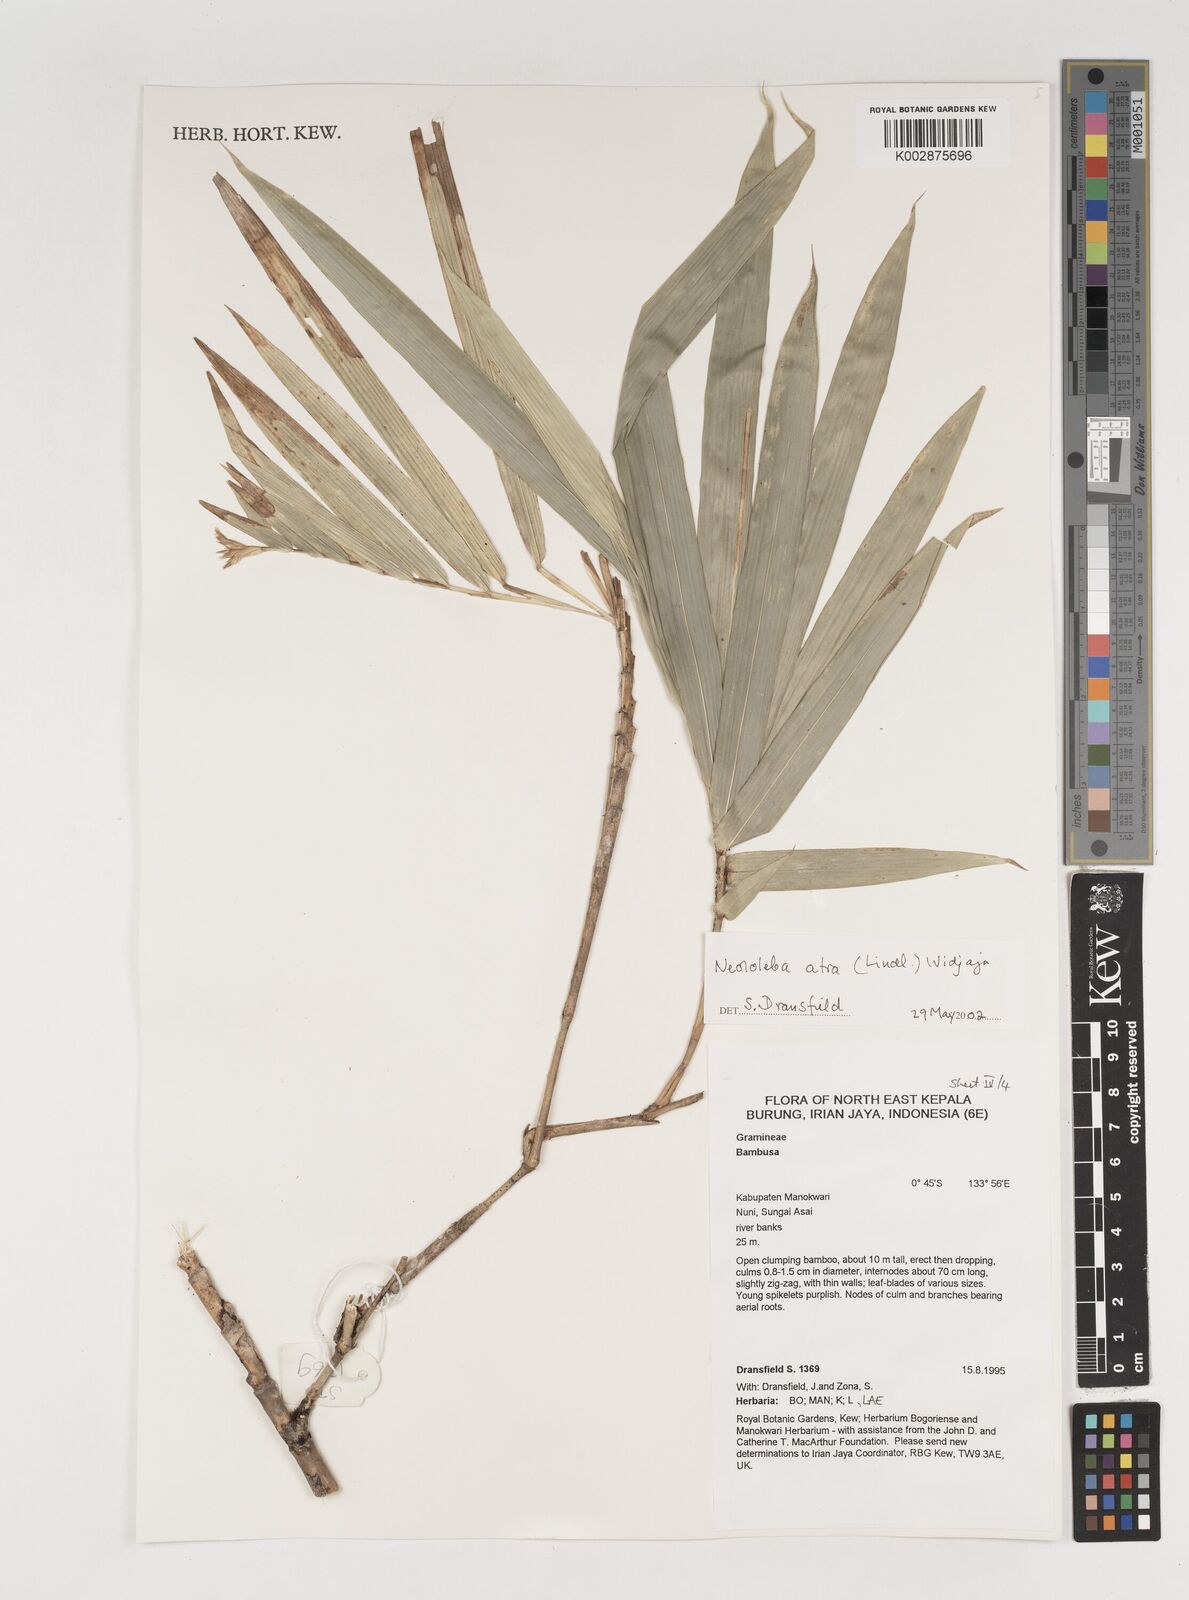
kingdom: Plantae
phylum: Tracheophyta
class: Liliopsida
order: Poales
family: Poaceae
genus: Neololeba
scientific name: Neololeba atra
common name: Cape bamboo
